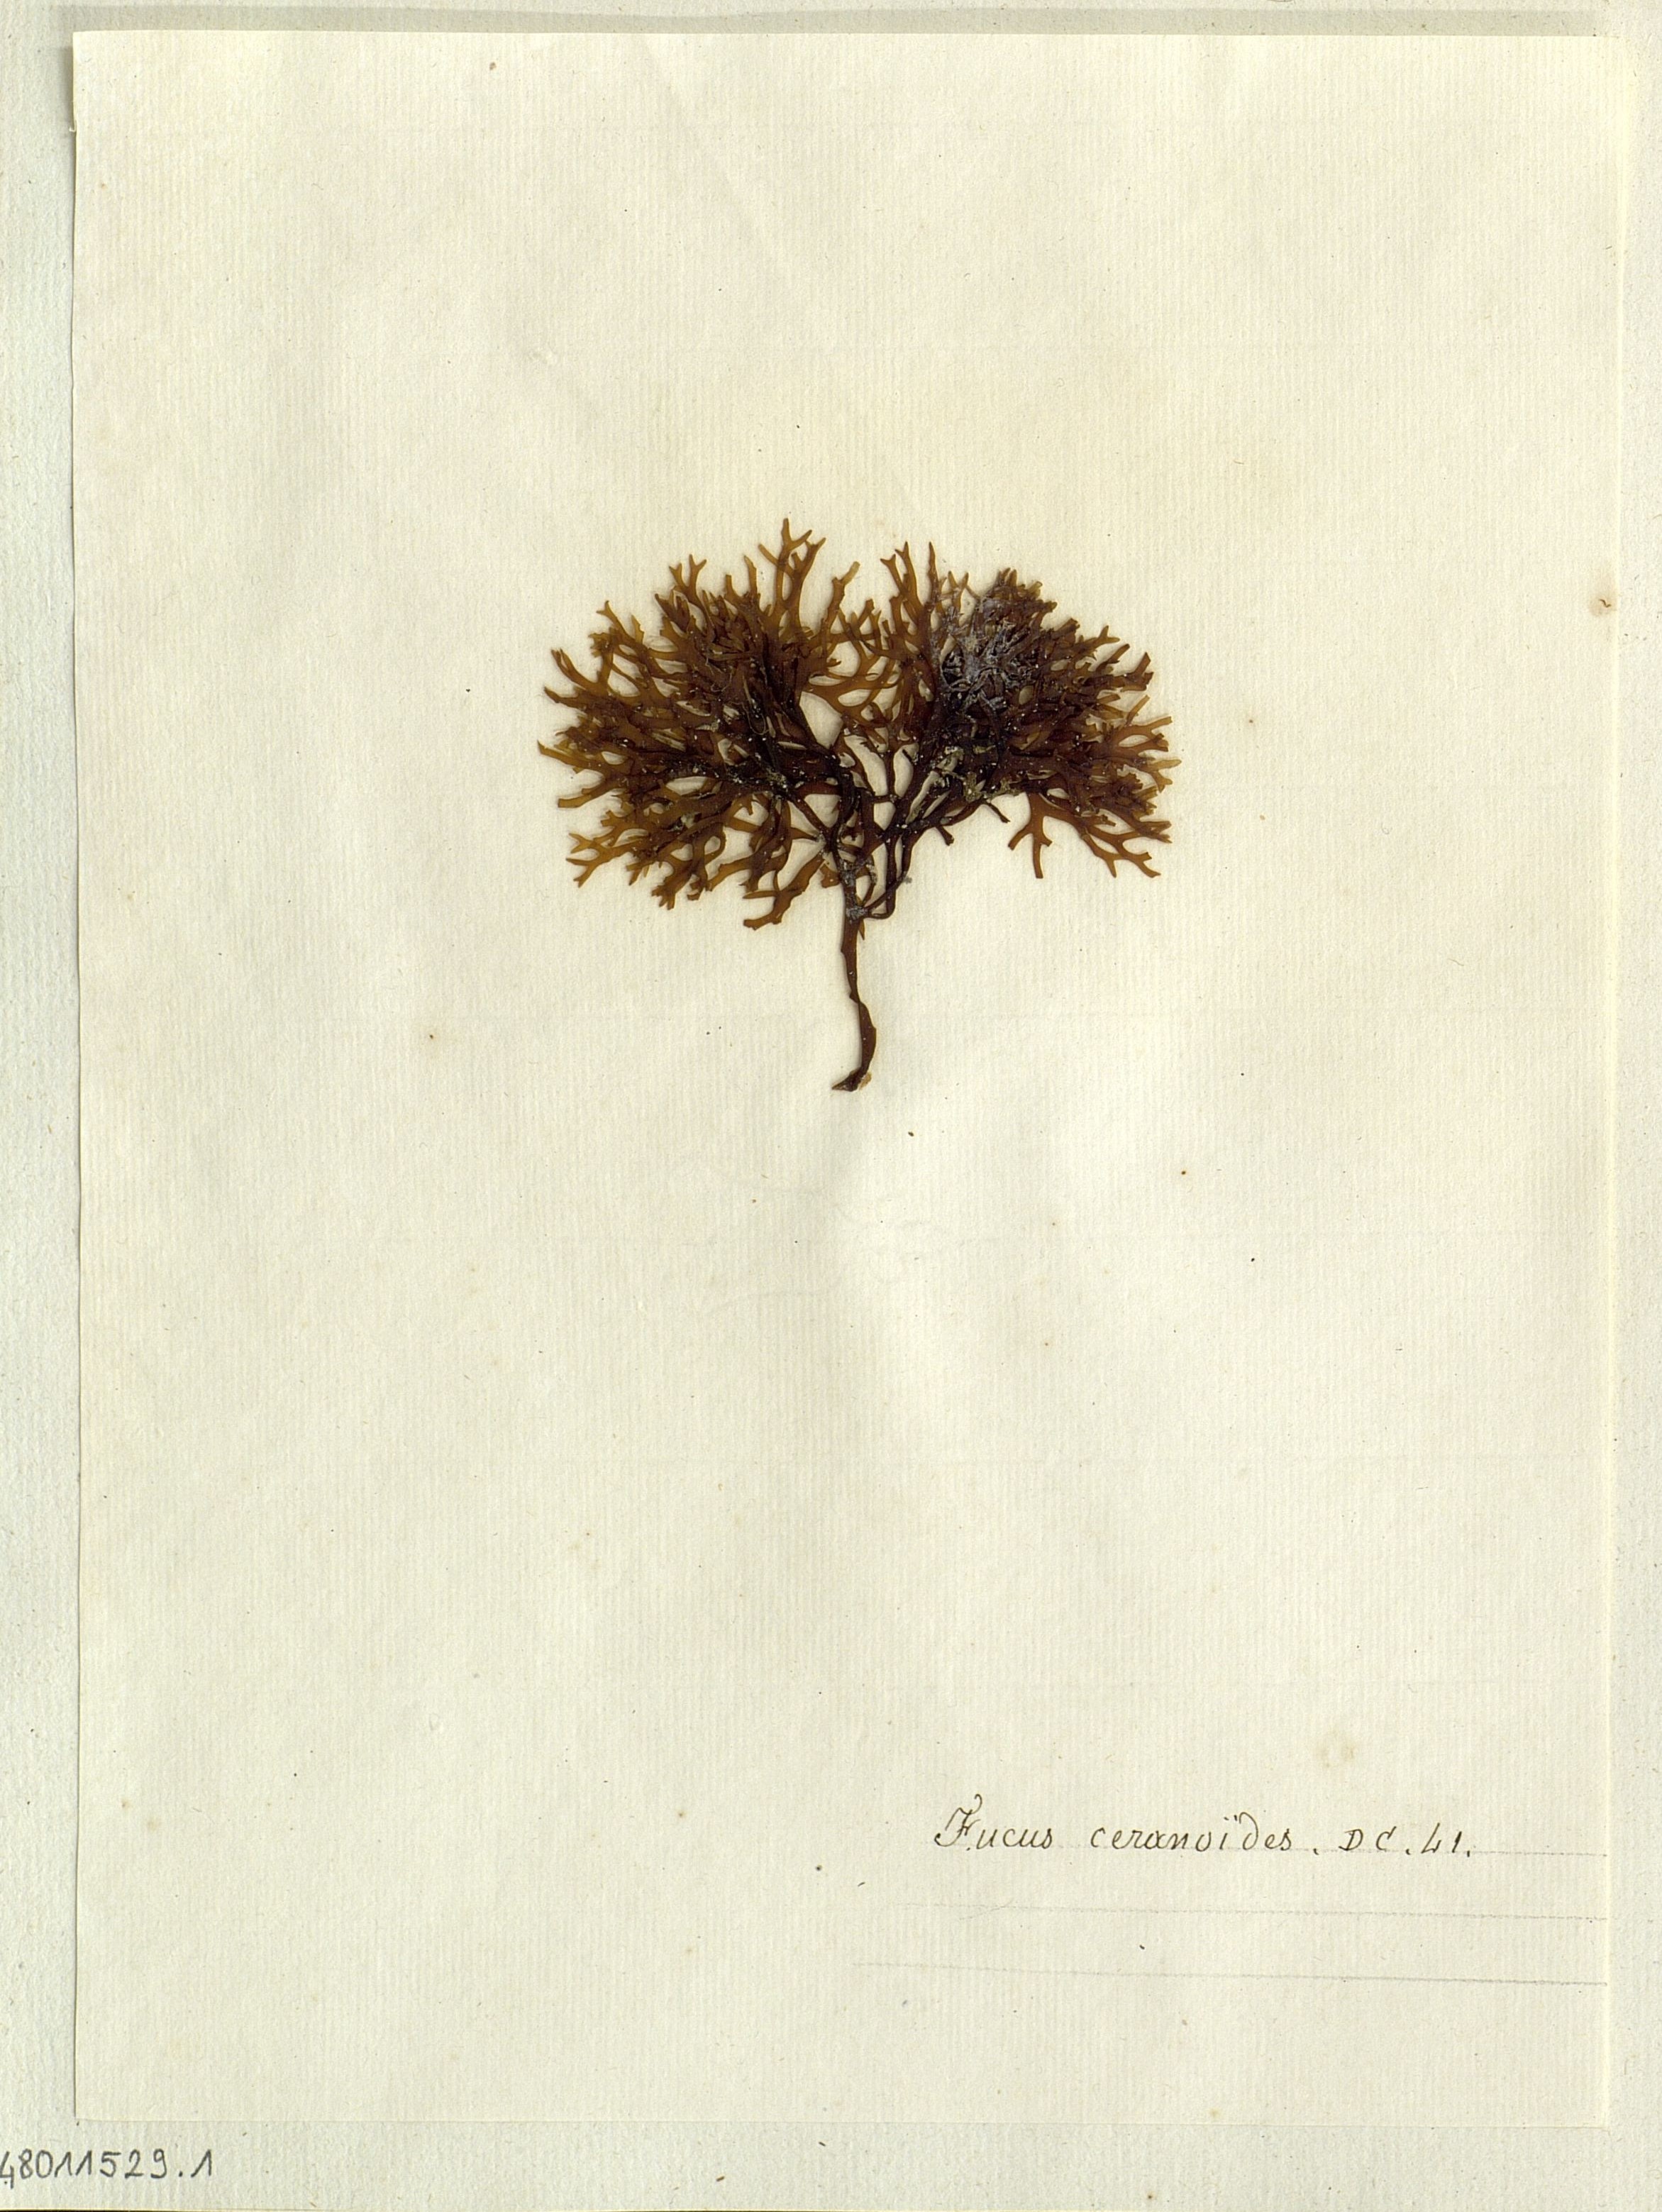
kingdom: Chromista
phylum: Ochrophyta
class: Phaeophyceae
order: Fucales
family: Fucaceae
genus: Fucus
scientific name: Fucus ceranoides
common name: Horned wrack
